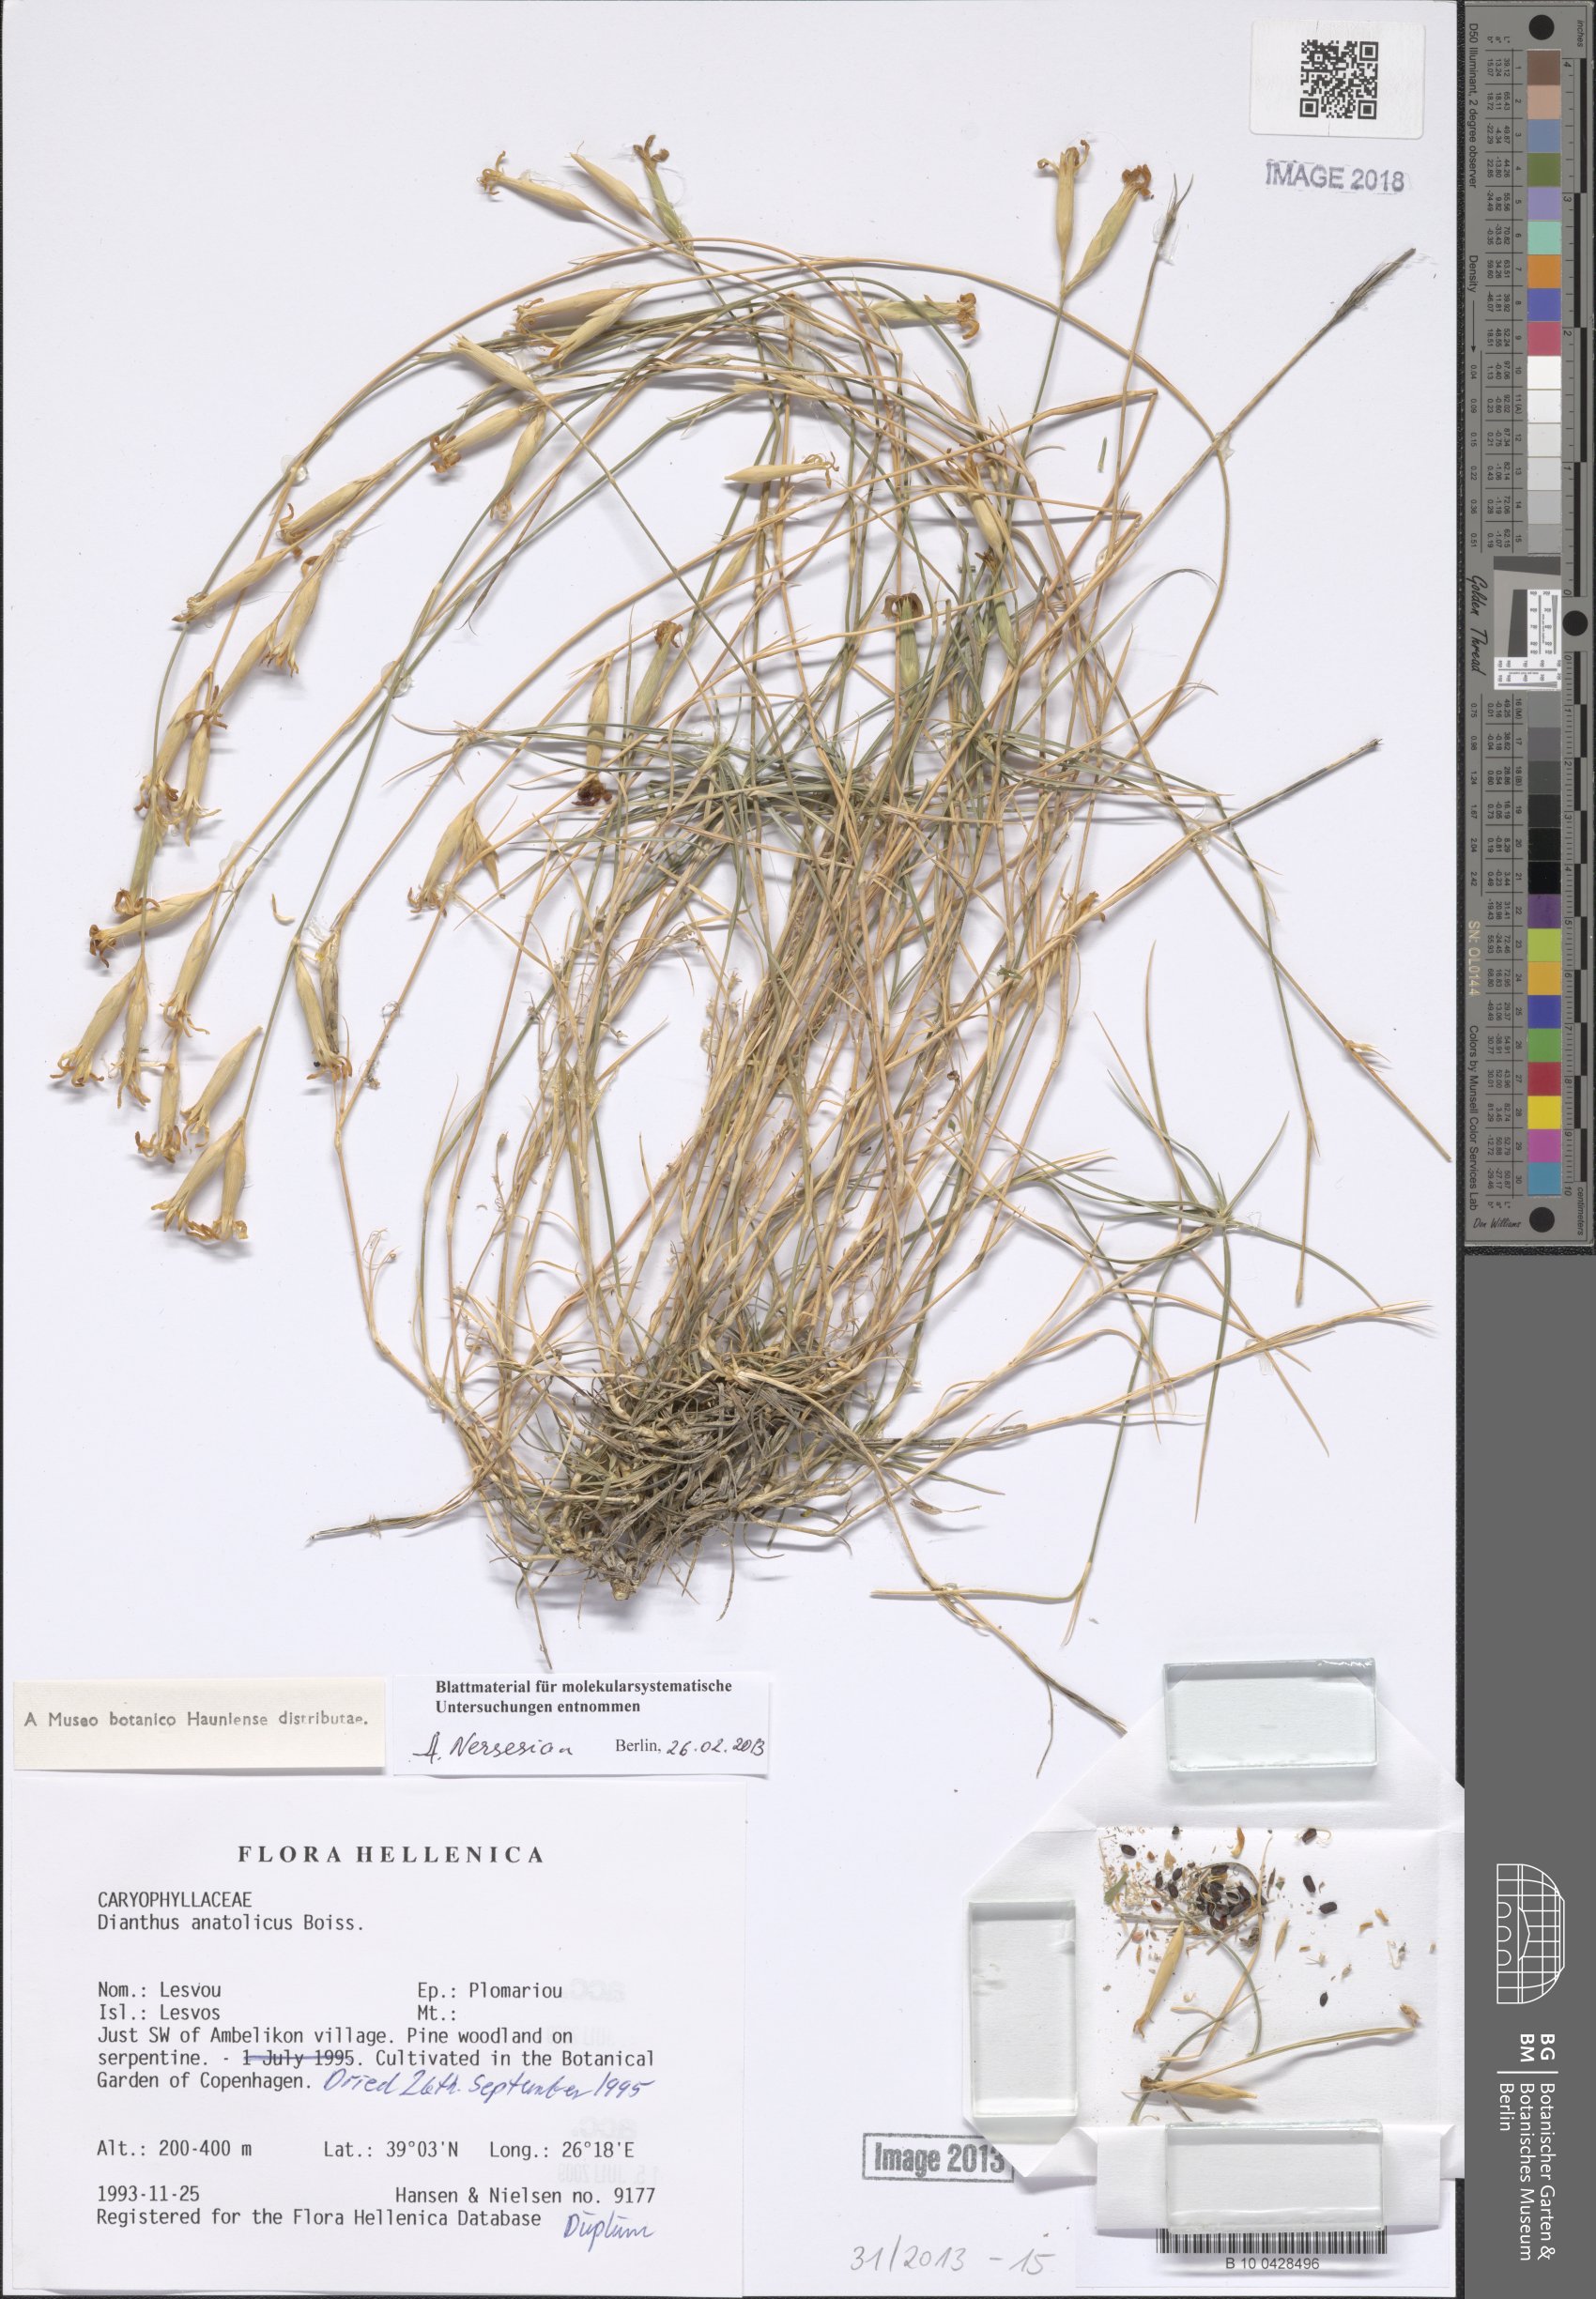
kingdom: Plantae
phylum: Tracheophyta
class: Magnoliopsida
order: Caryophyllales
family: Caryophyllaceae
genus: Dianthus
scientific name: Dianthus anatolicus
